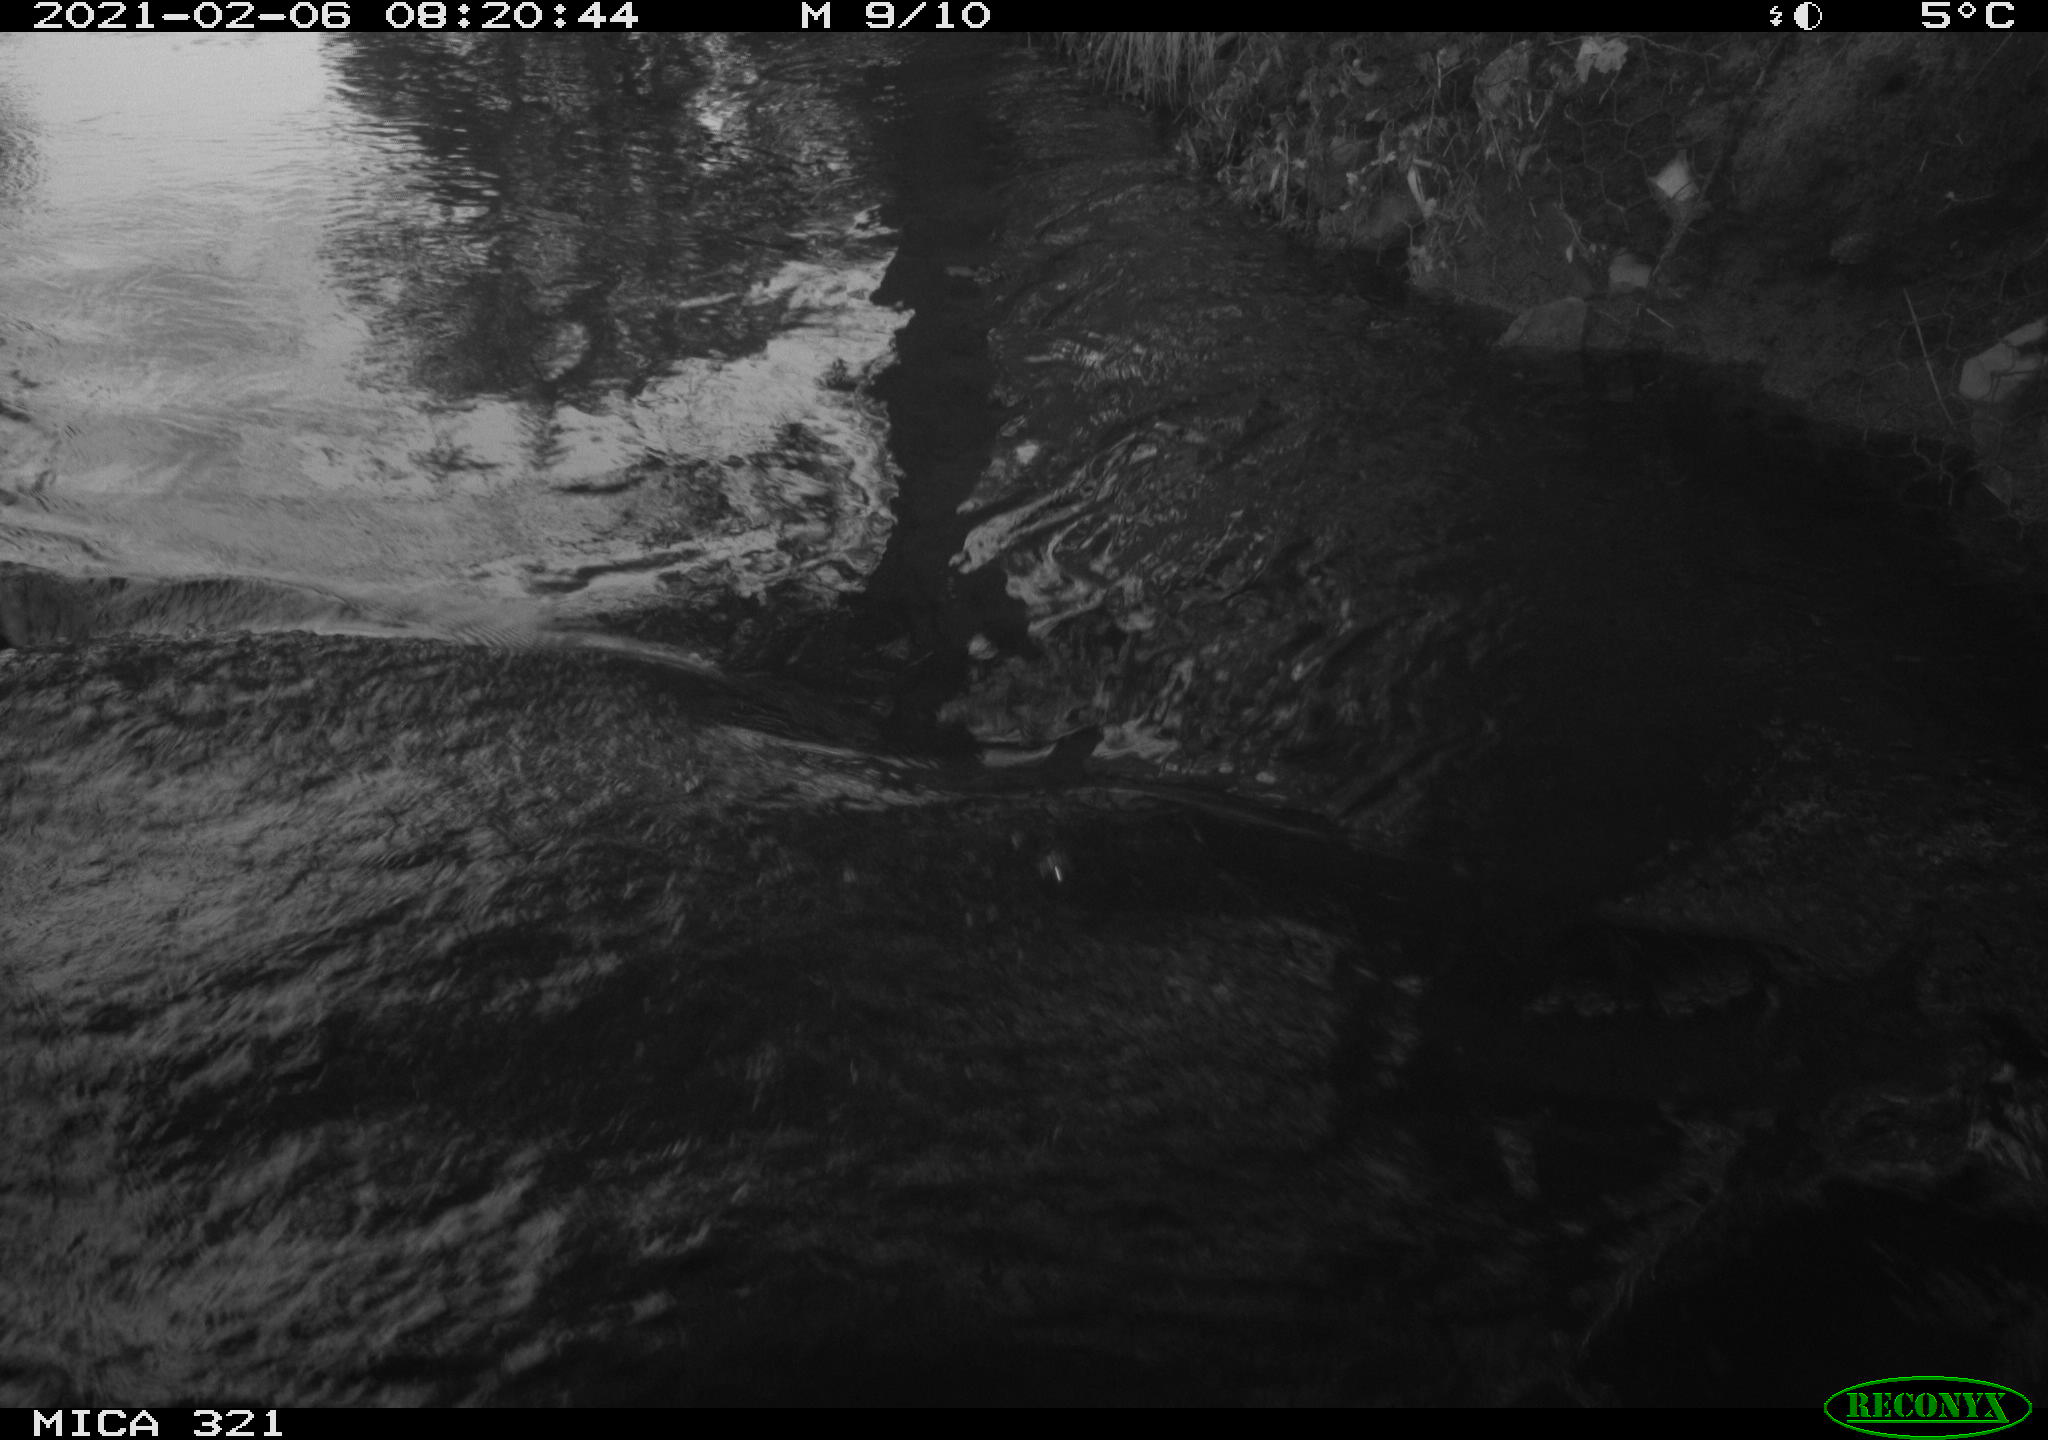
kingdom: Animalia
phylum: Chordata
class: Aves
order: Anseriformes
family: Anatidae
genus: Anas
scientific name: Anas platyrhynchos
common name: Mallard
